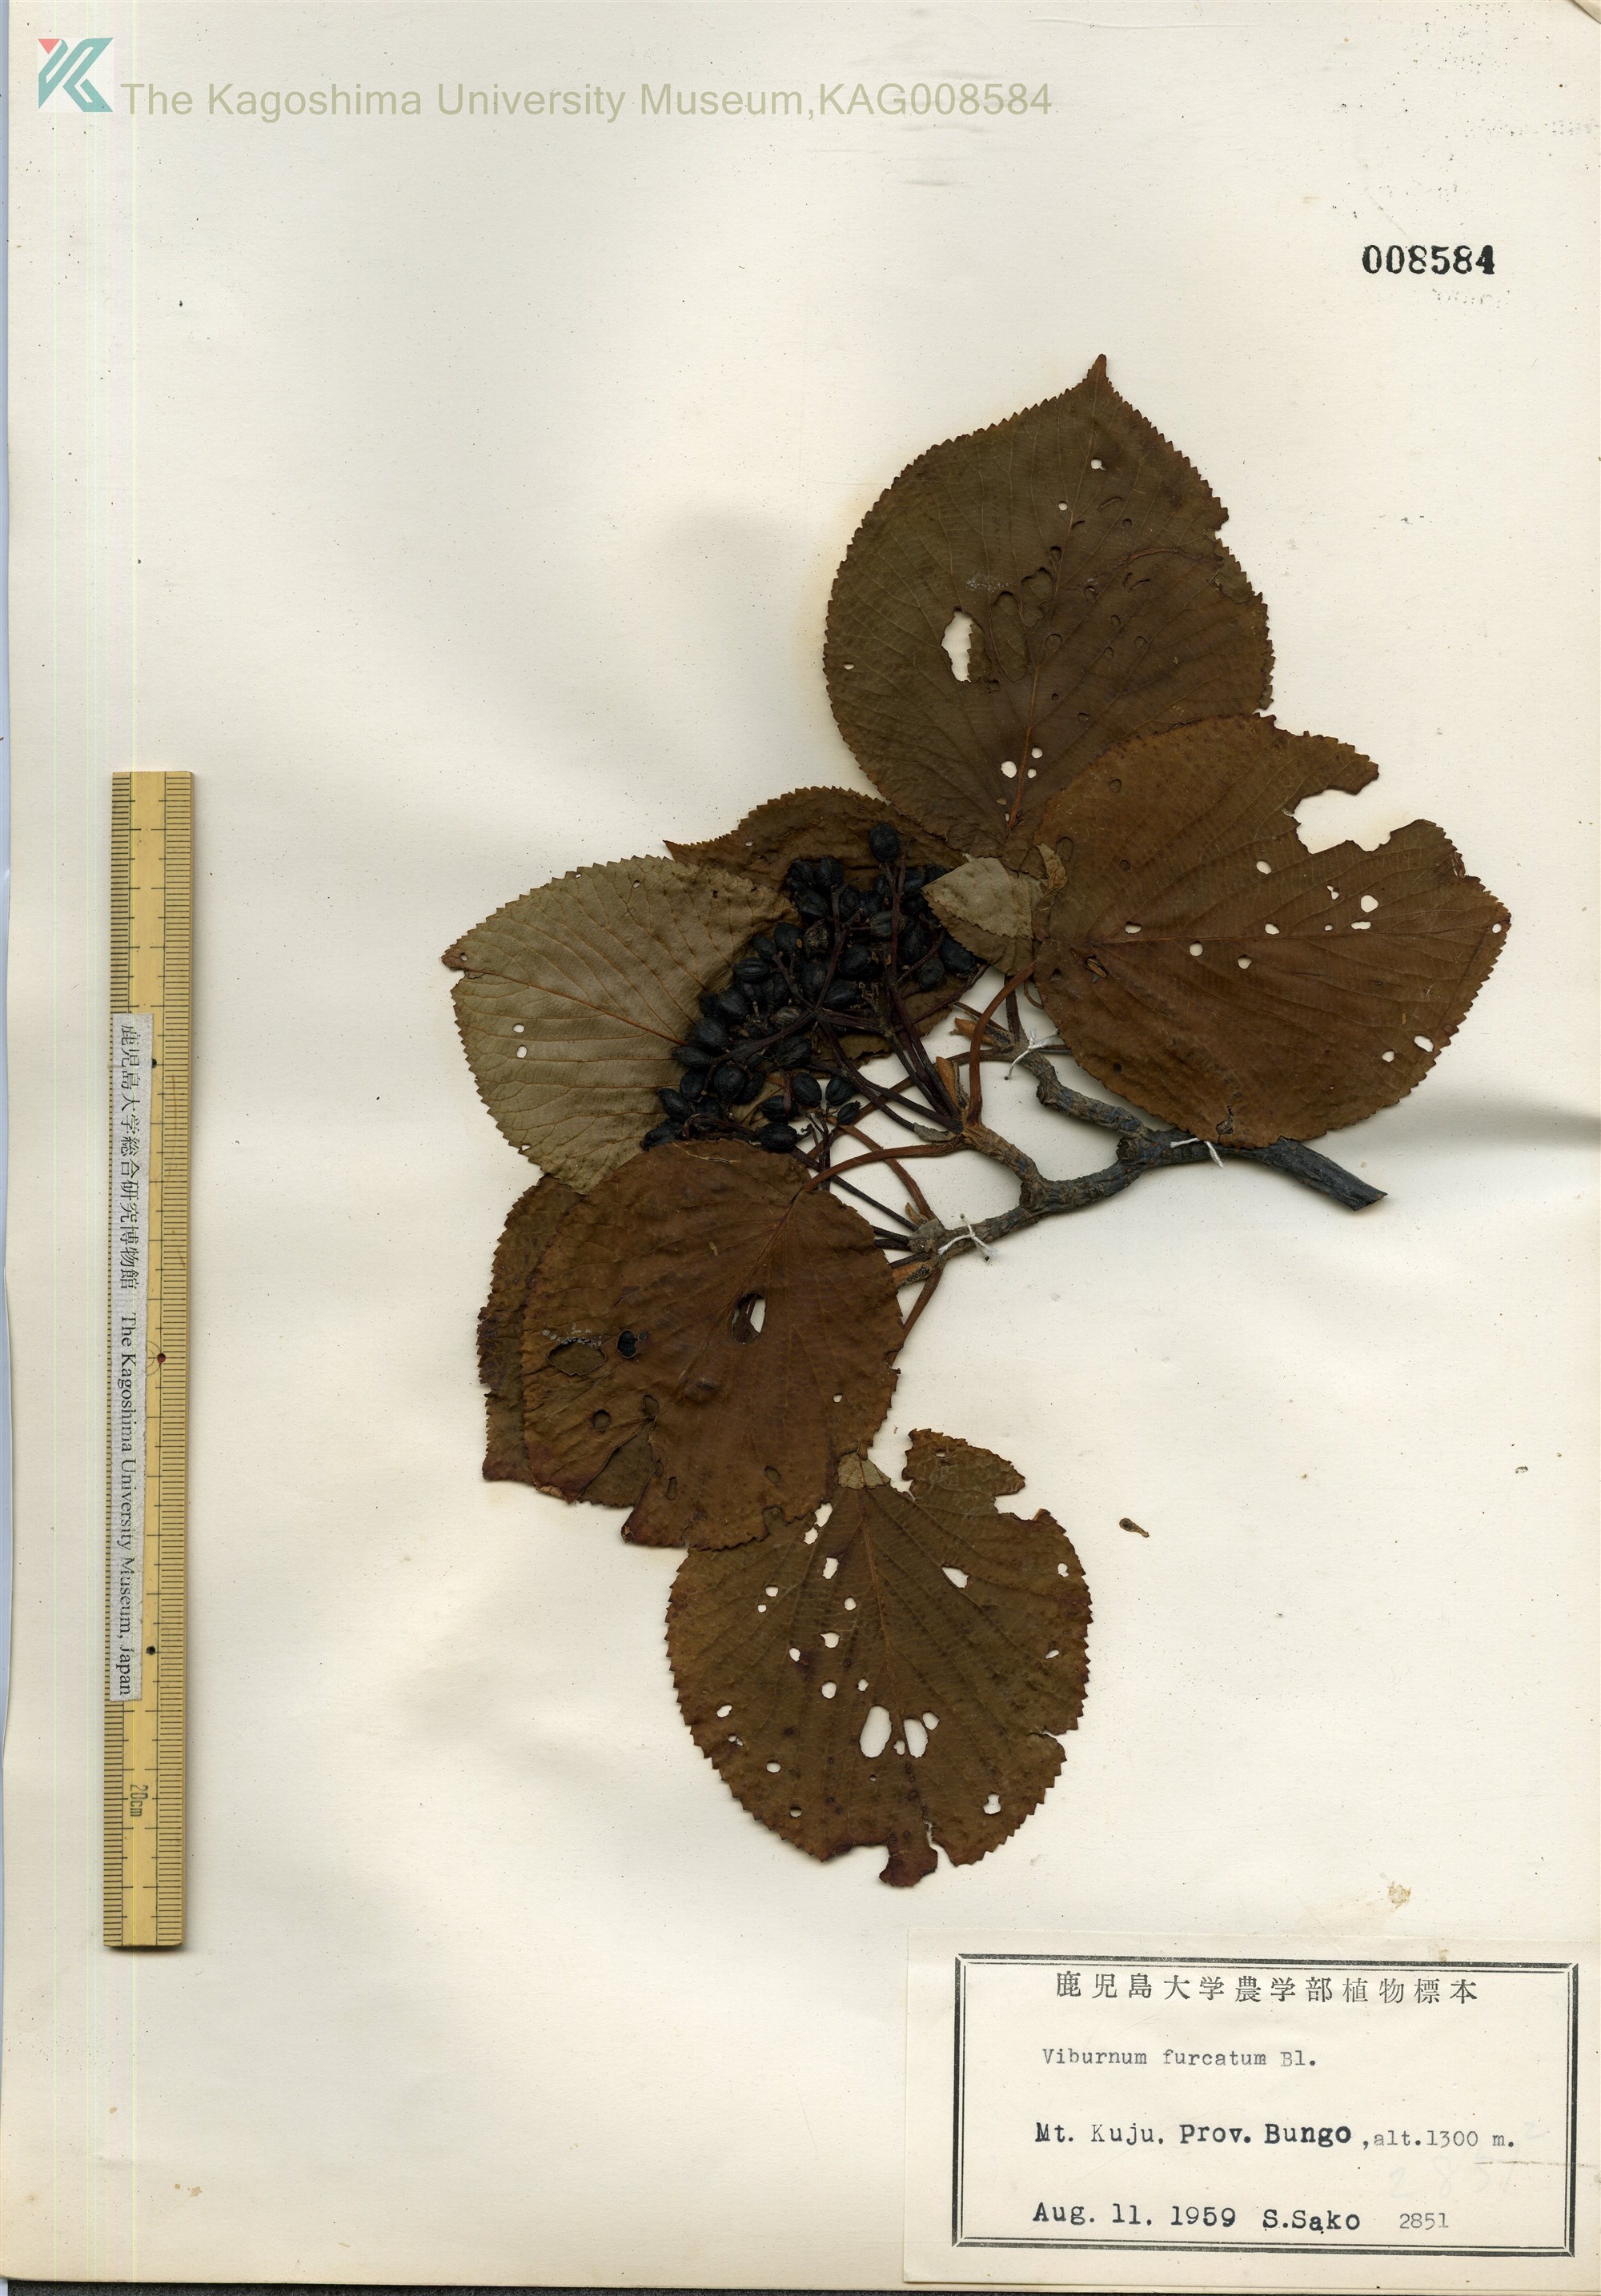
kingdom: Plantae
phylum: Tracheophyta
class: Magnoliopsida
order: Dipsacales
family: Viburnaceae
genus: Viburnum
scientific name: Viburnum furcatum
